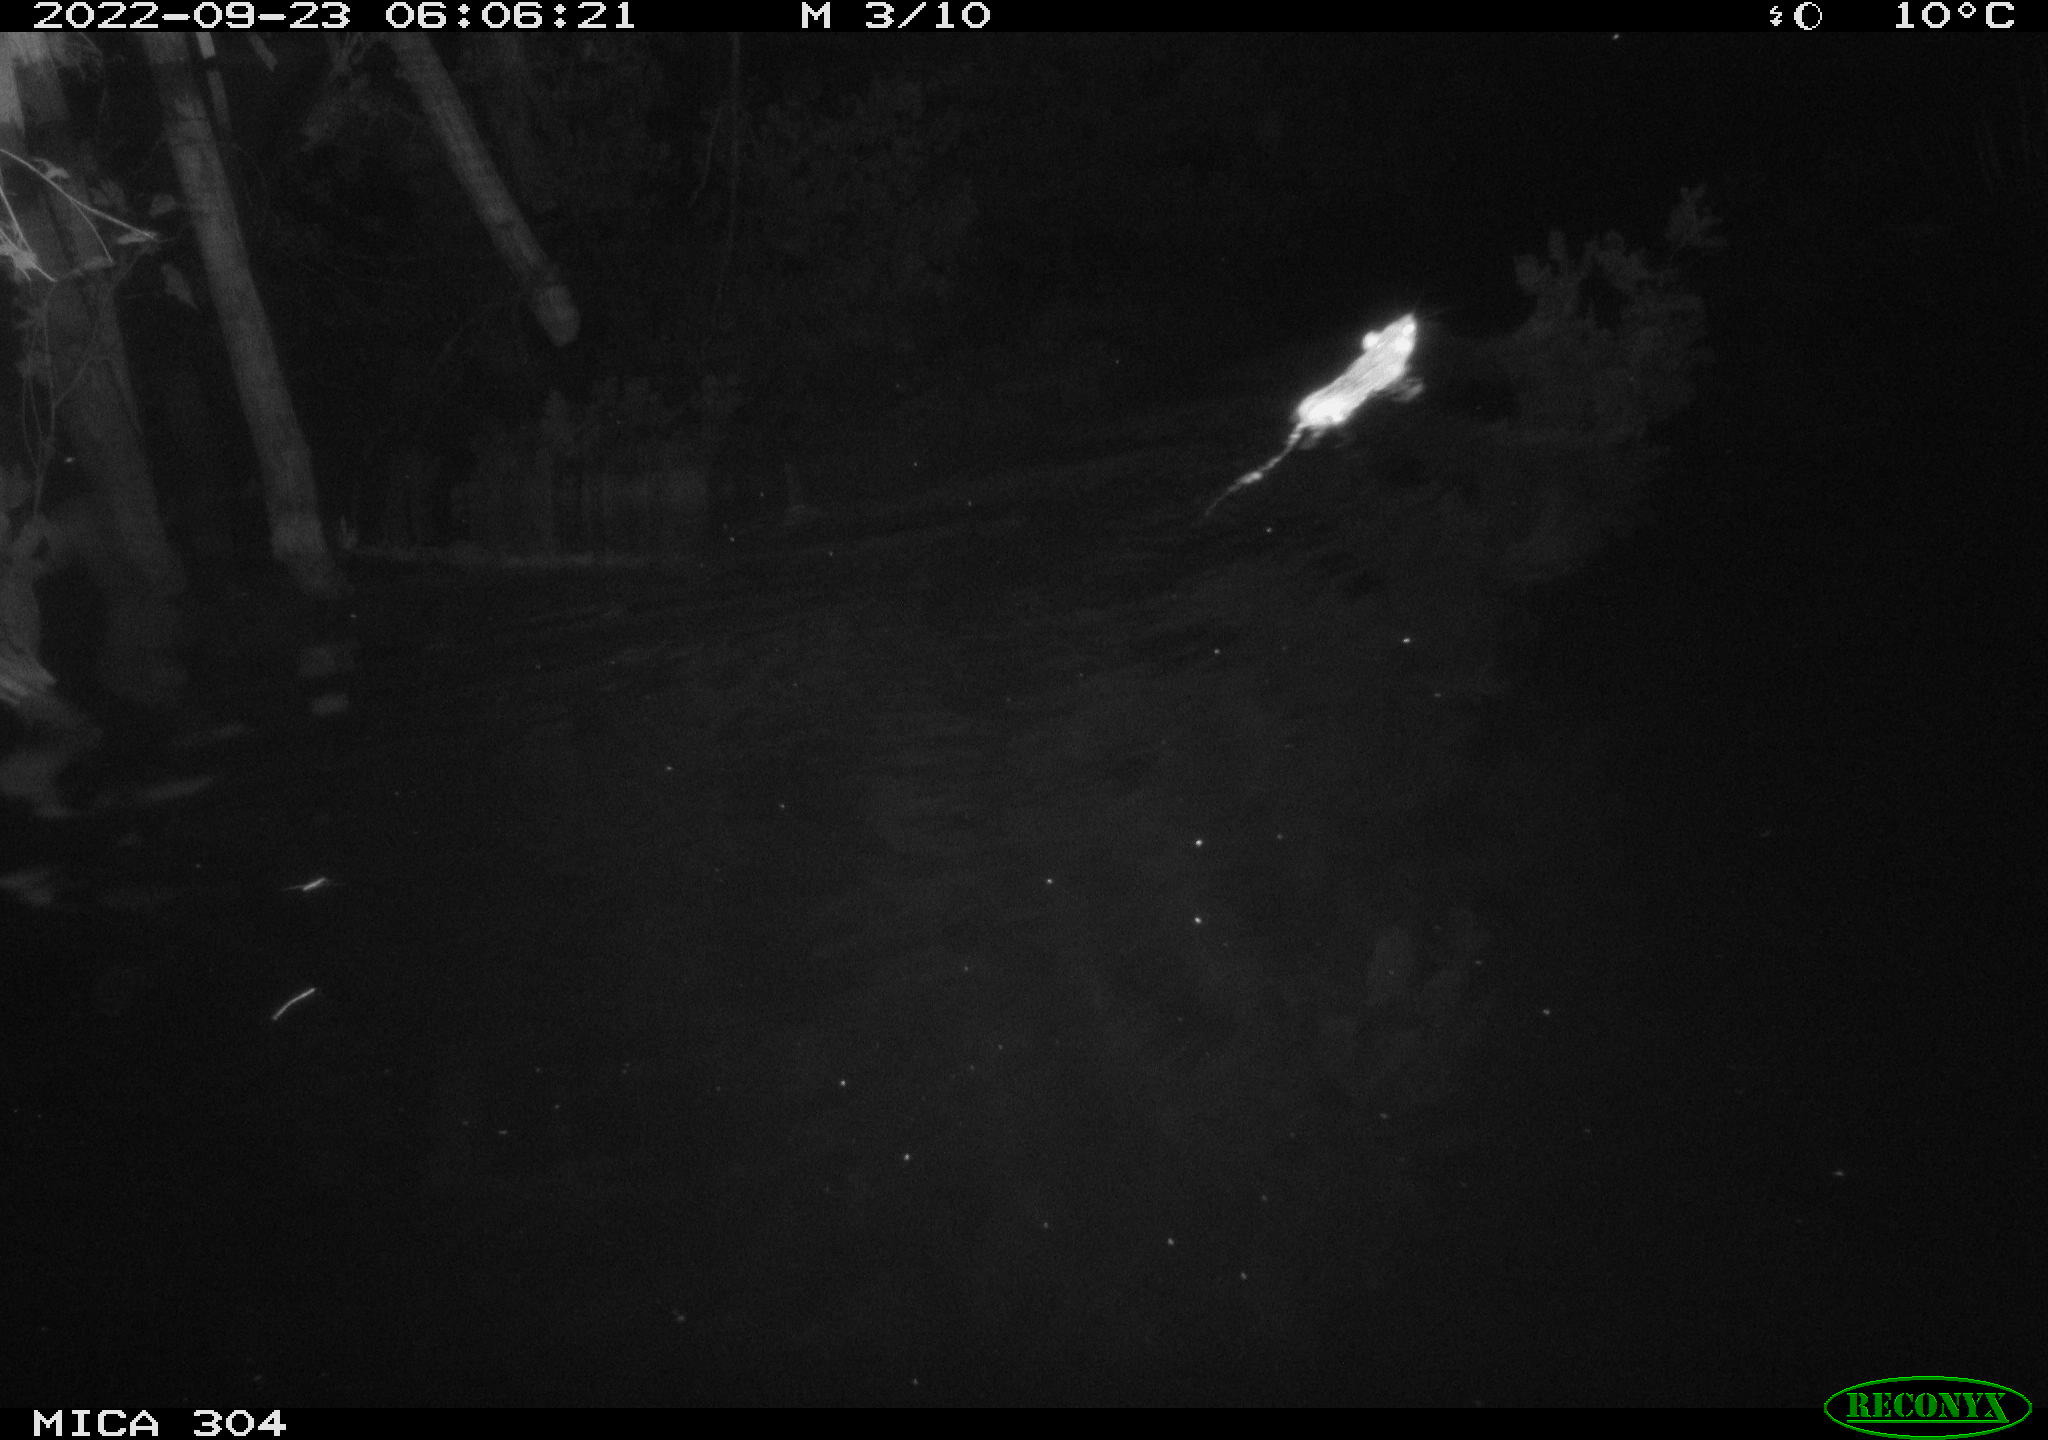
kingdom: Animalia
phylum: Chordata
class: Mammalia
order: Rodentia
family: Muridae
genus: Rattus
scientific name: Rattus norvegicus
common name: Brown rat
